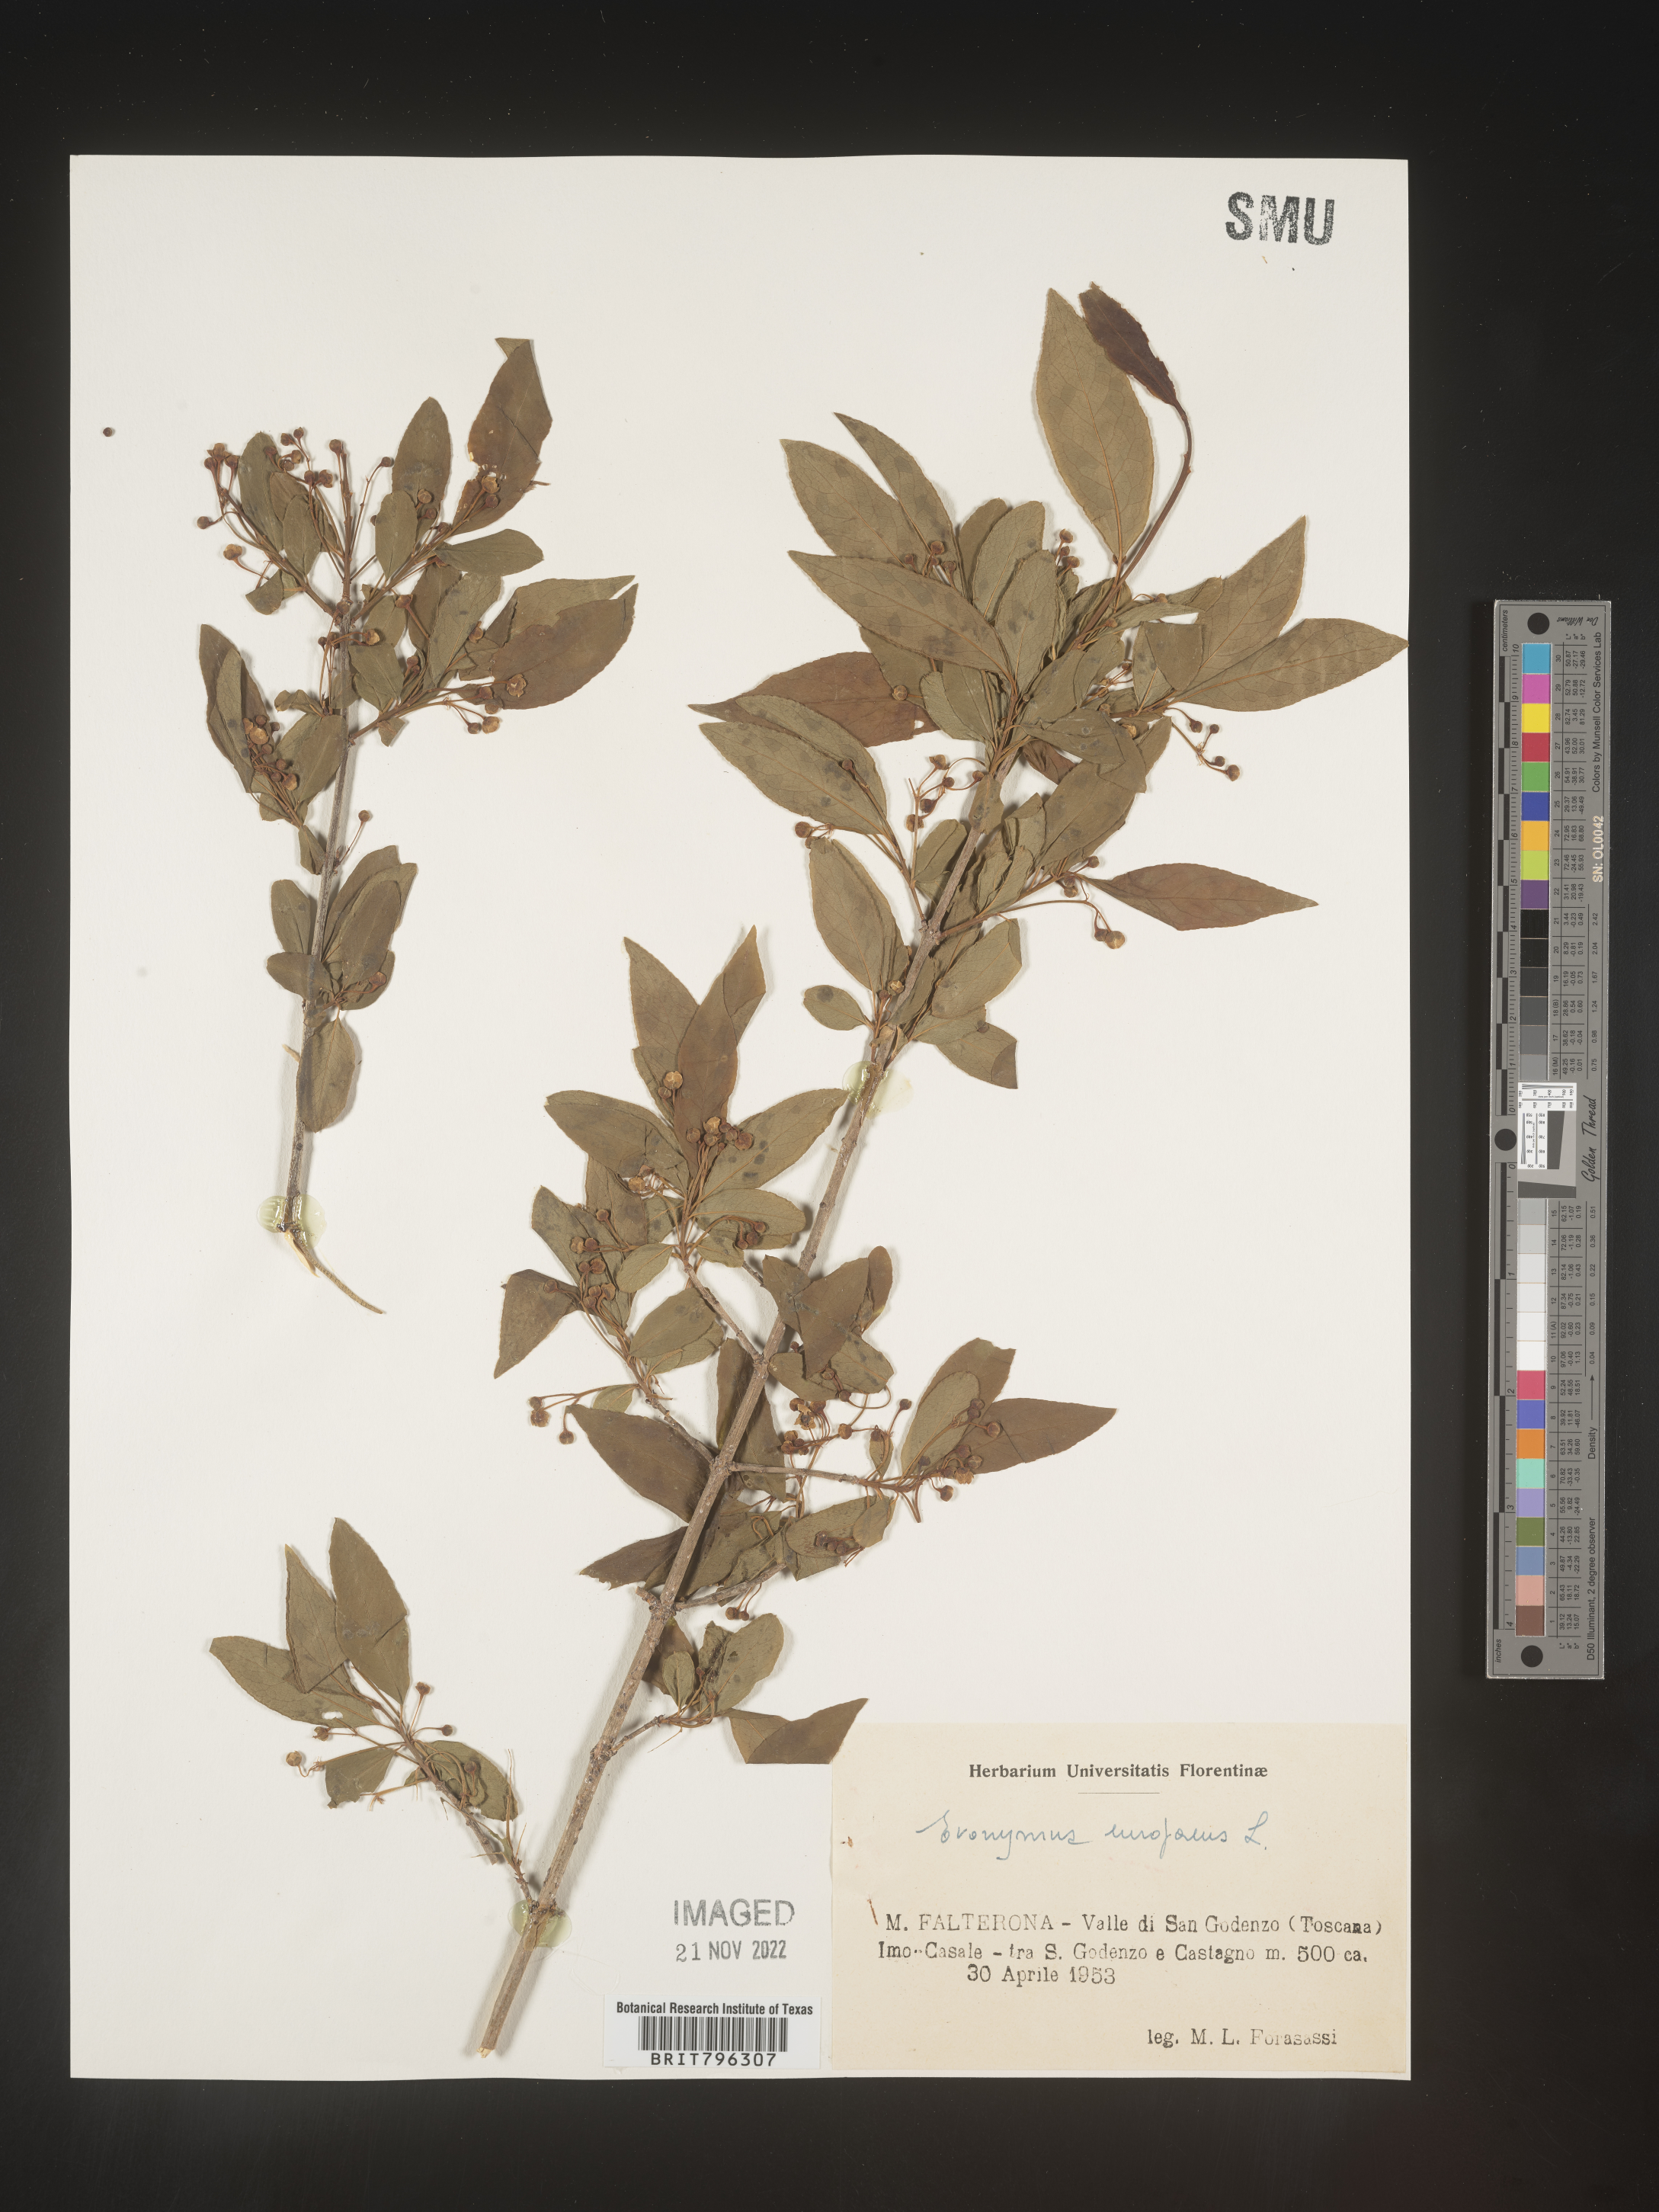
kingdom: Plantae
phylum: Tracheophyta
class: Magnoliopsida
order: Celastrales
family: Celastraceae
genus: Euonymus
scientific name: Euonymus
